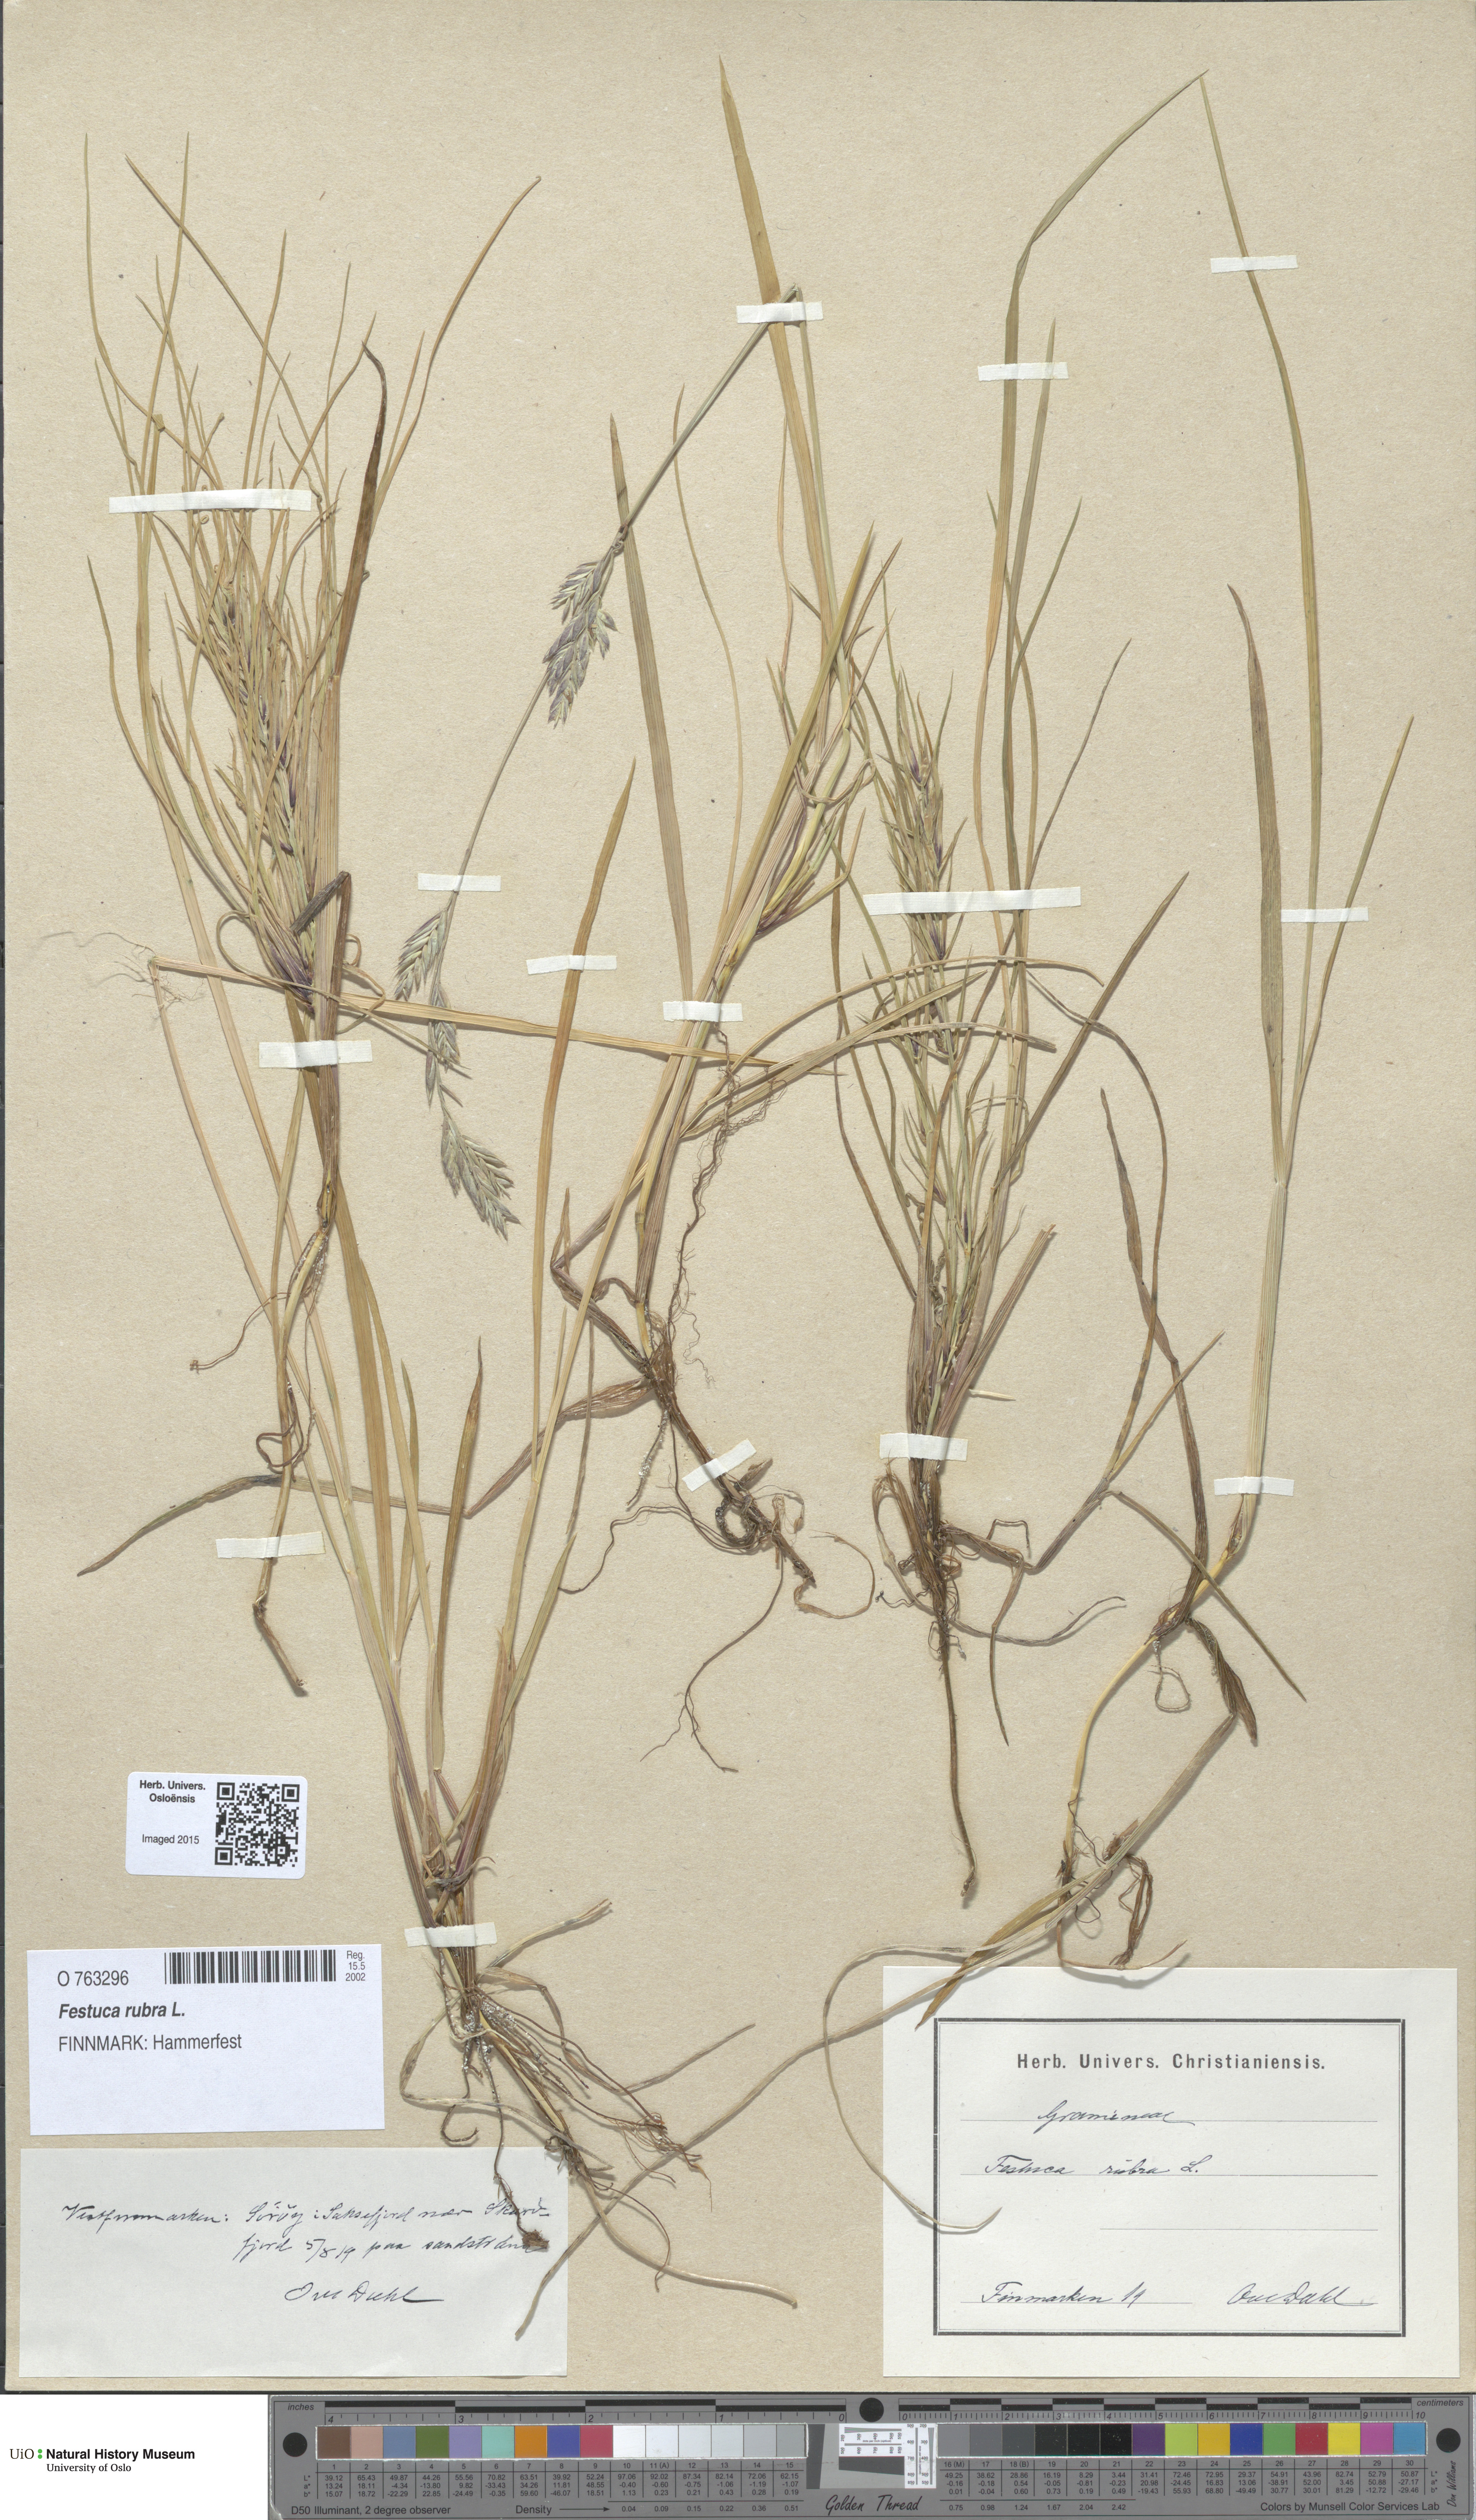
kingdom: Plantae
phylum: Tracheophyta
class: Liliopsida
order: Poales
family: Poaceae
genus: Festuca
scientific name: Festuca rubra
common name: Red fescue
